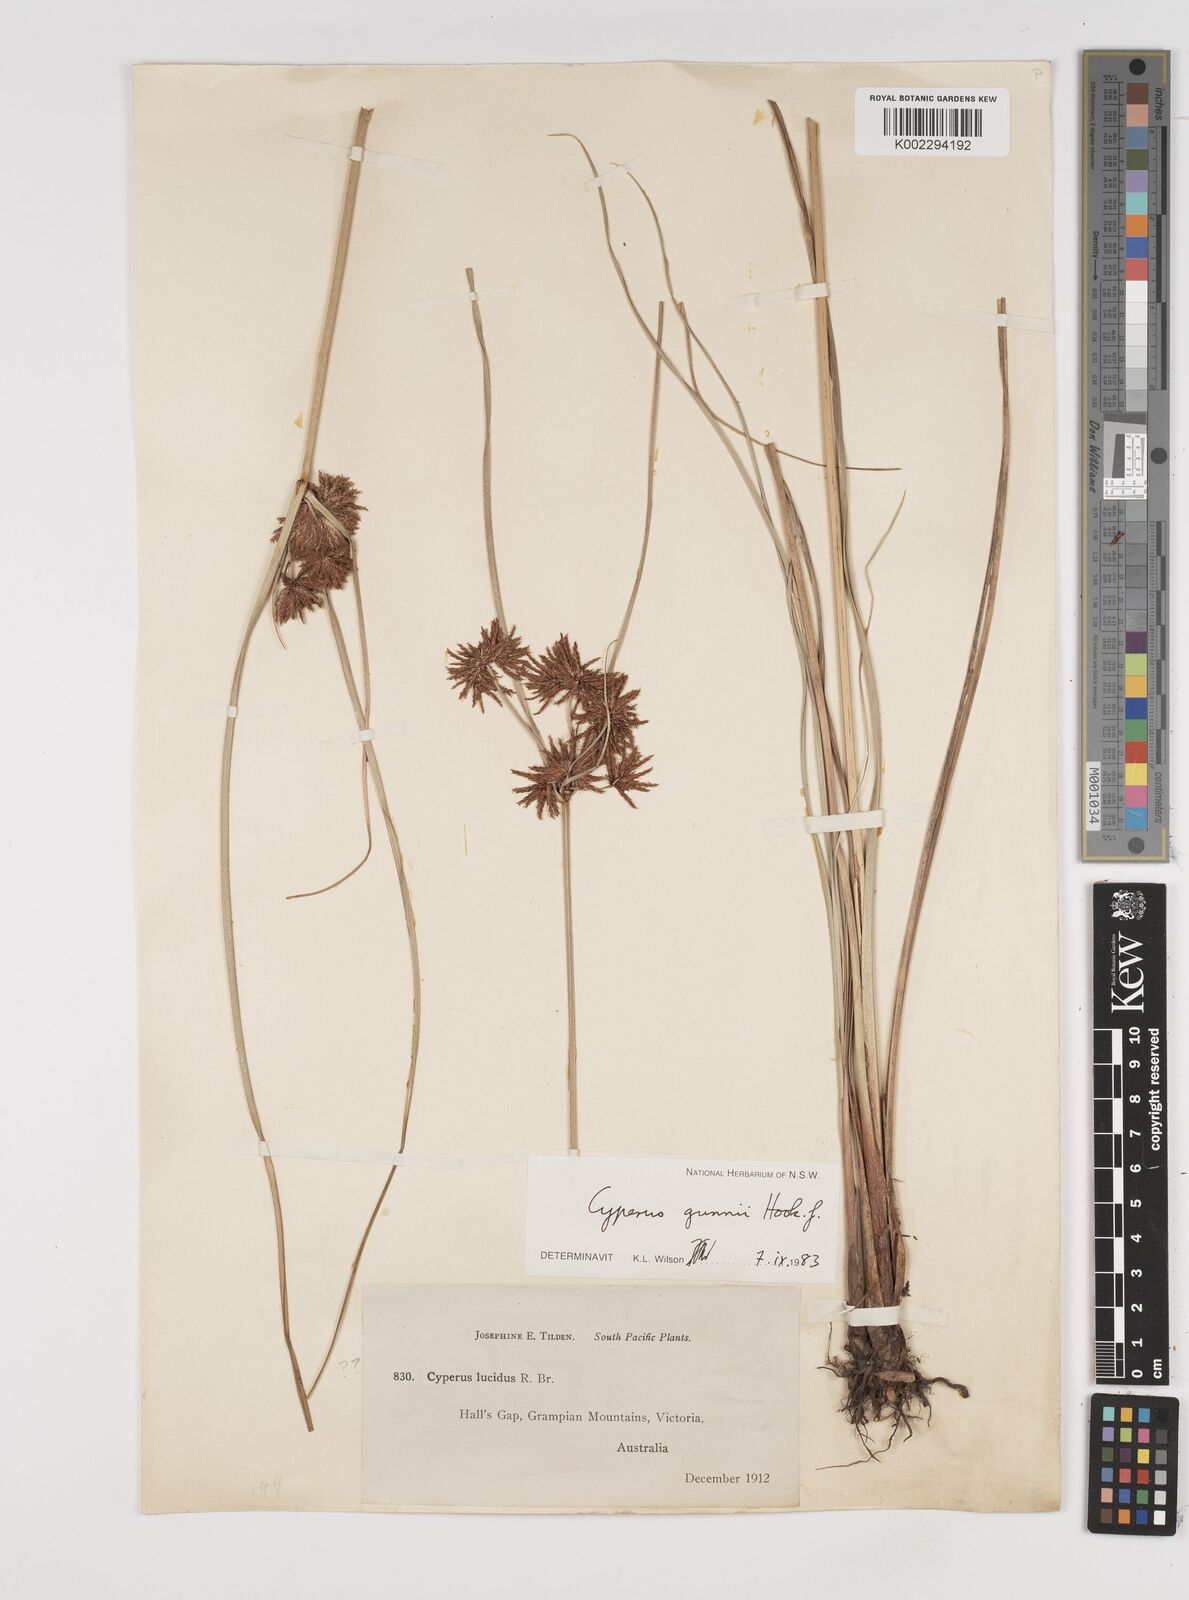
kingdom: Plantae
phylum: Tracheophyta
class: Liliopsida
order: Poales
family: Cyperaceae
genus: Cyperus
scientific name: Cyperus gunnii
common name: Flecked flat-sedge
